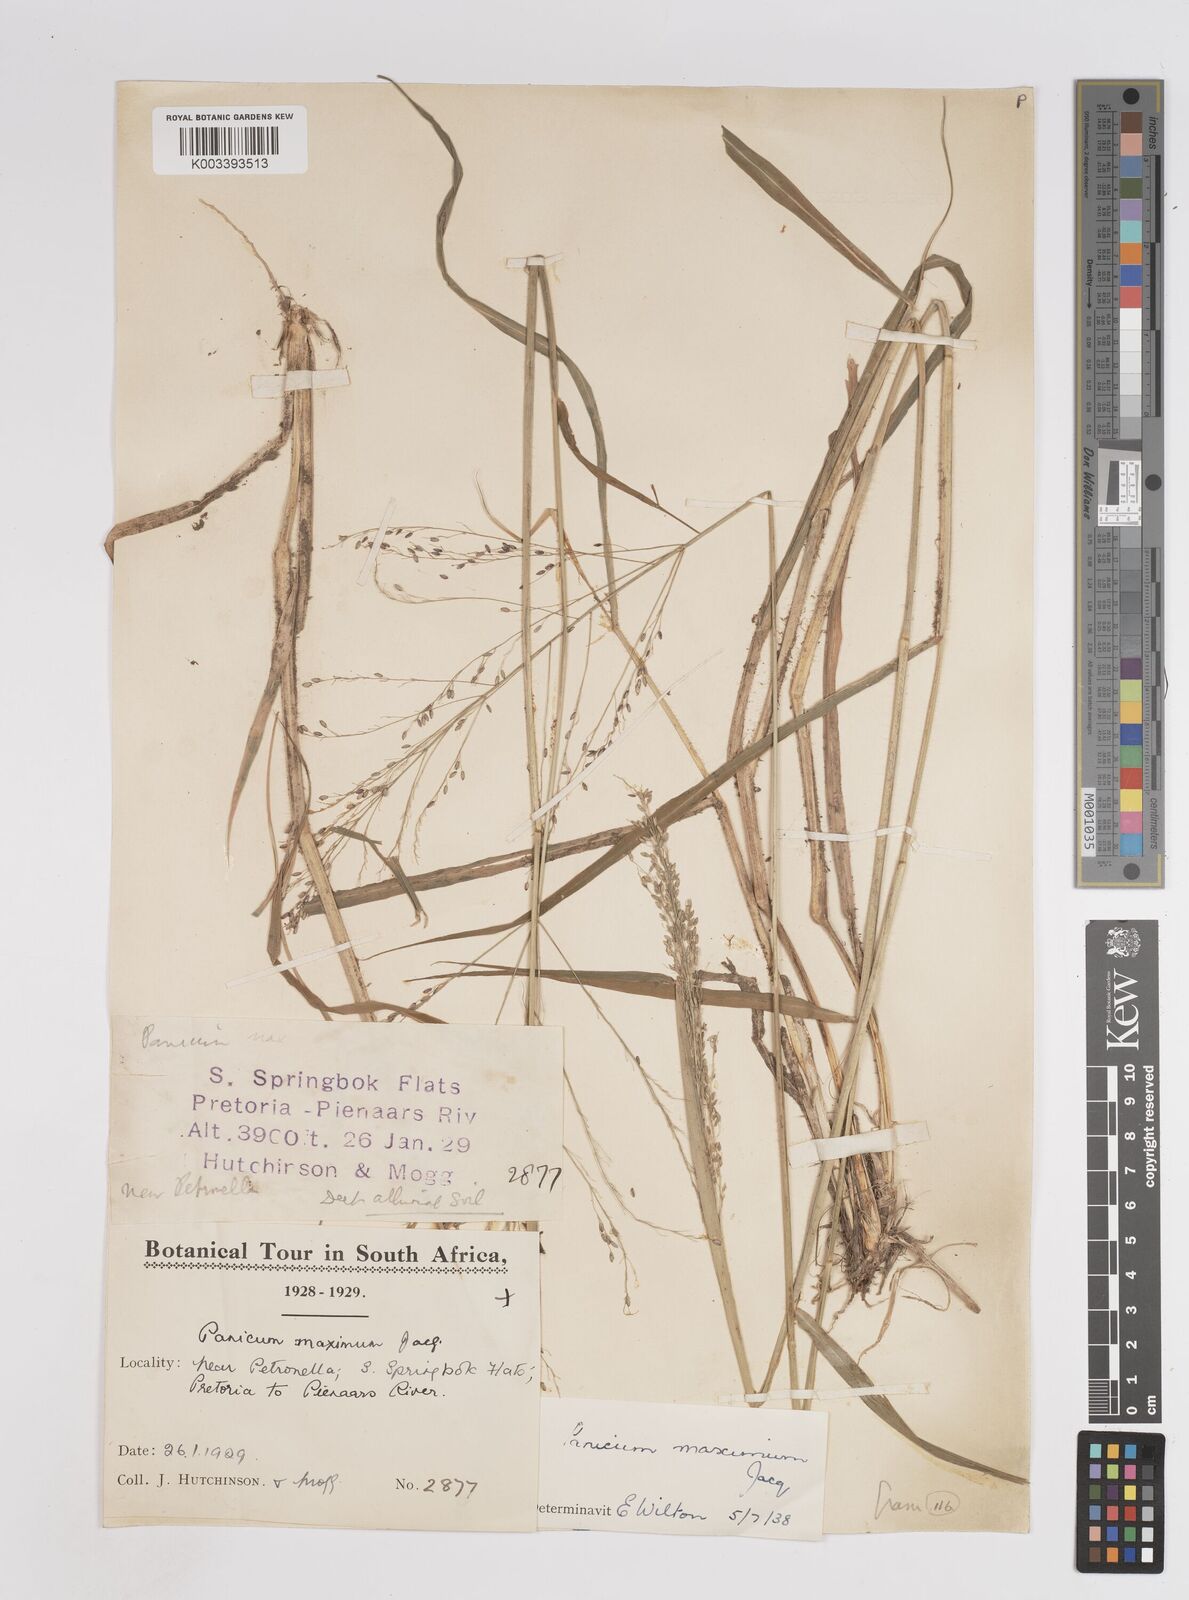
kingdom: Plantae
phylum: Tracheophyta
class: Liliopsida
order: Poales
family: Poaceae
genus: Megathyrsus
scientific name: Megathyrsus maximus
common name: Guineagrass
